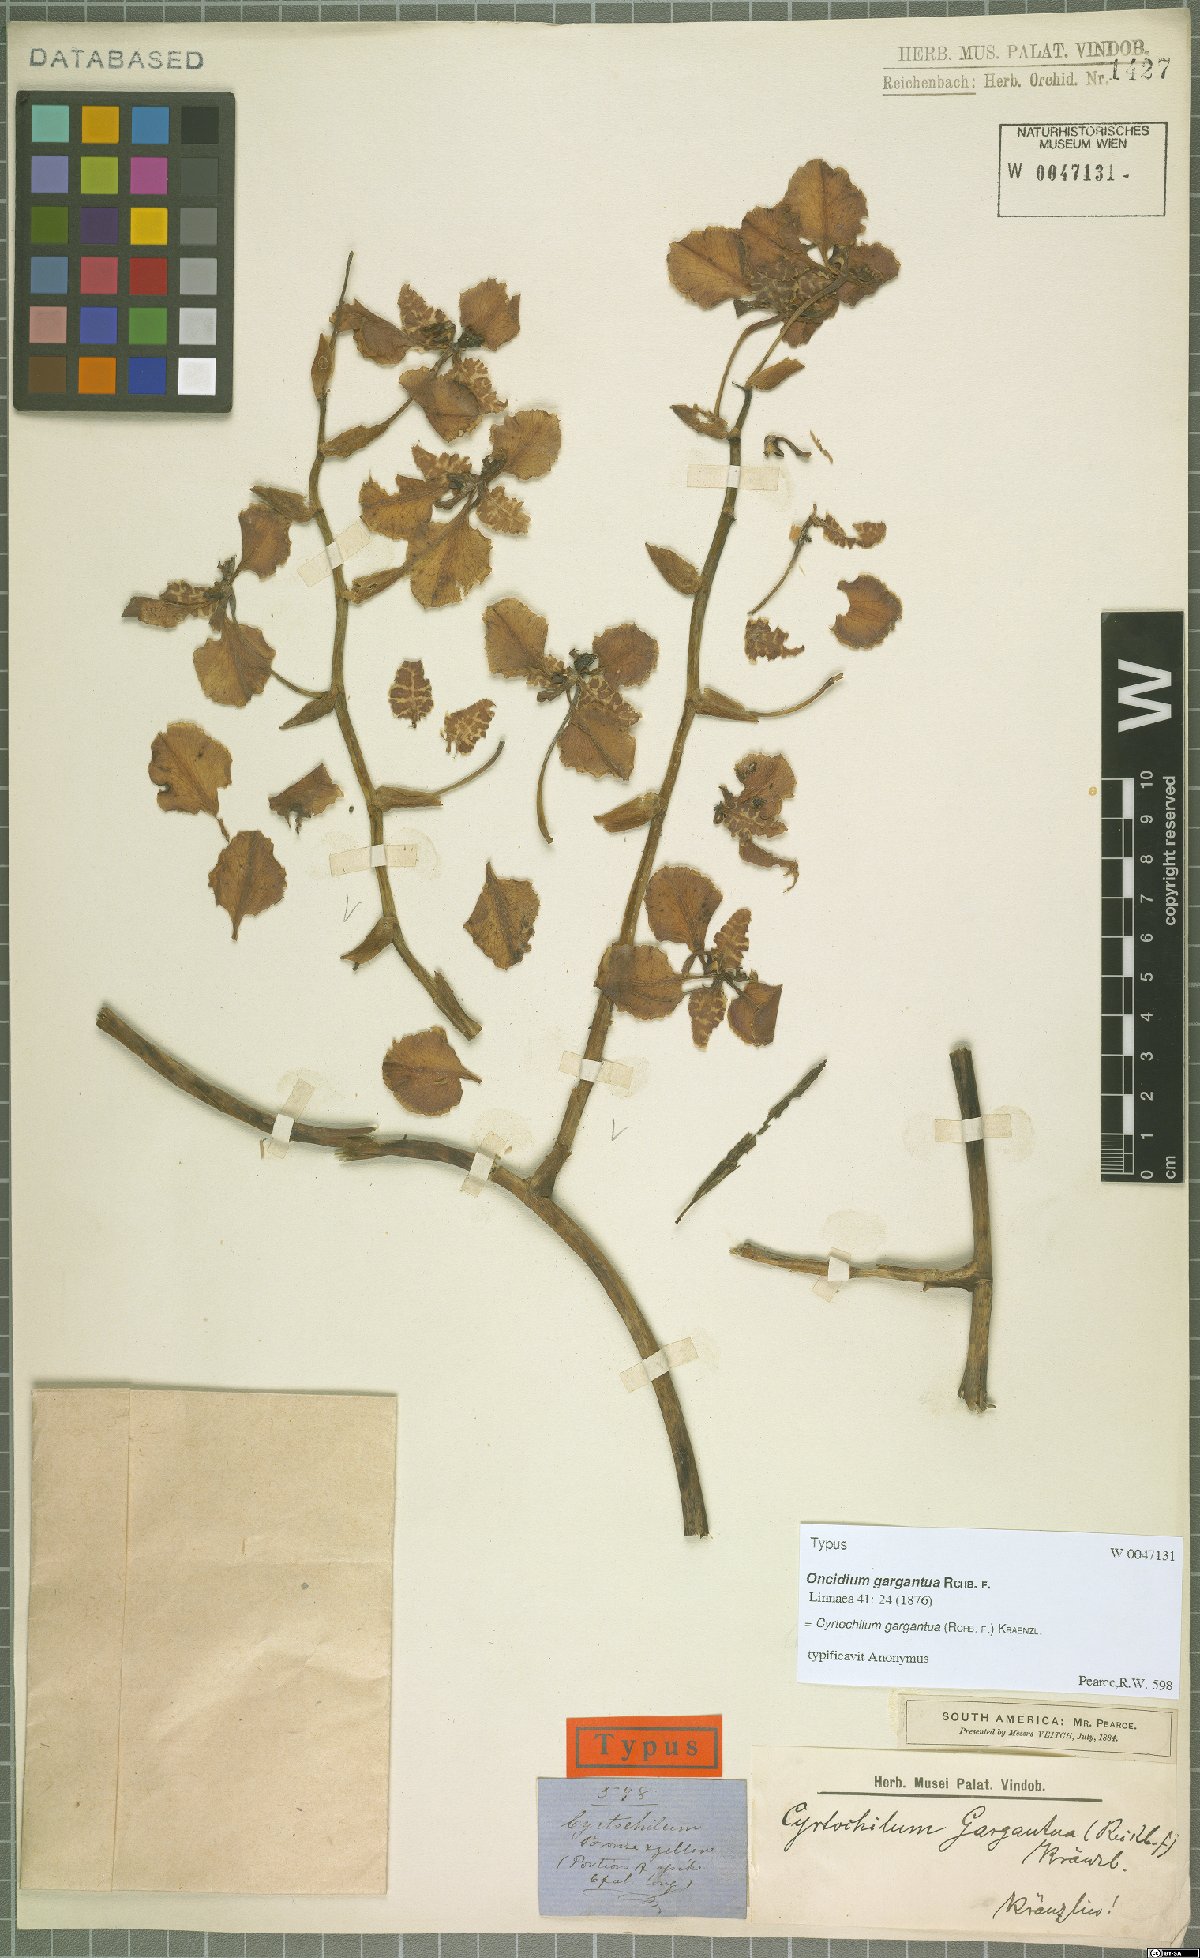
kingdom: Plantae
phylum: Tracheophyta
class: Liliopsida
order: Asparagales
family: Orchidaceae
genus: Cyrtochilum
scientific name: Cyrtochilum gargantua
